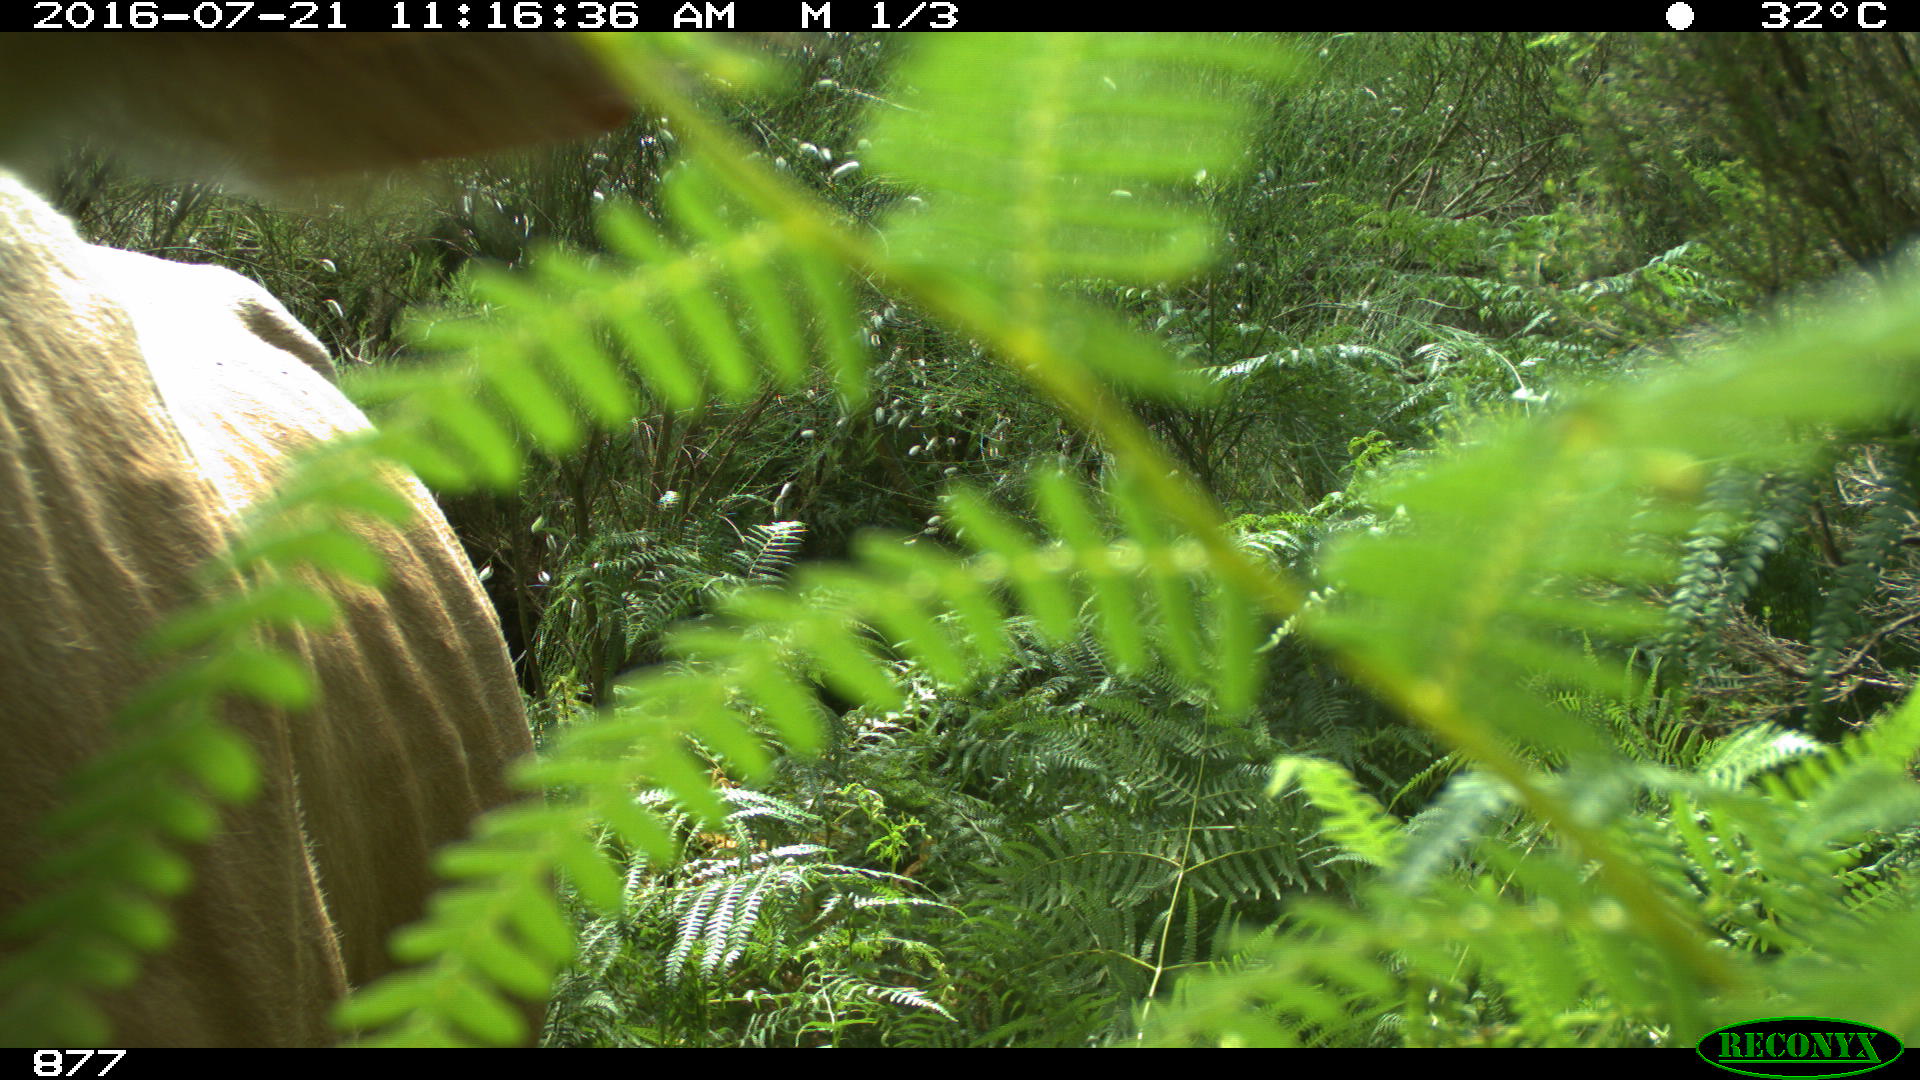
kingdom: Animalia
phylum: Chordata
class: Mammalia
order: Artiodactyla
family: Bovidae
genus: Bos
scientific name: Bos taurus
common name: Domesticated cattle
